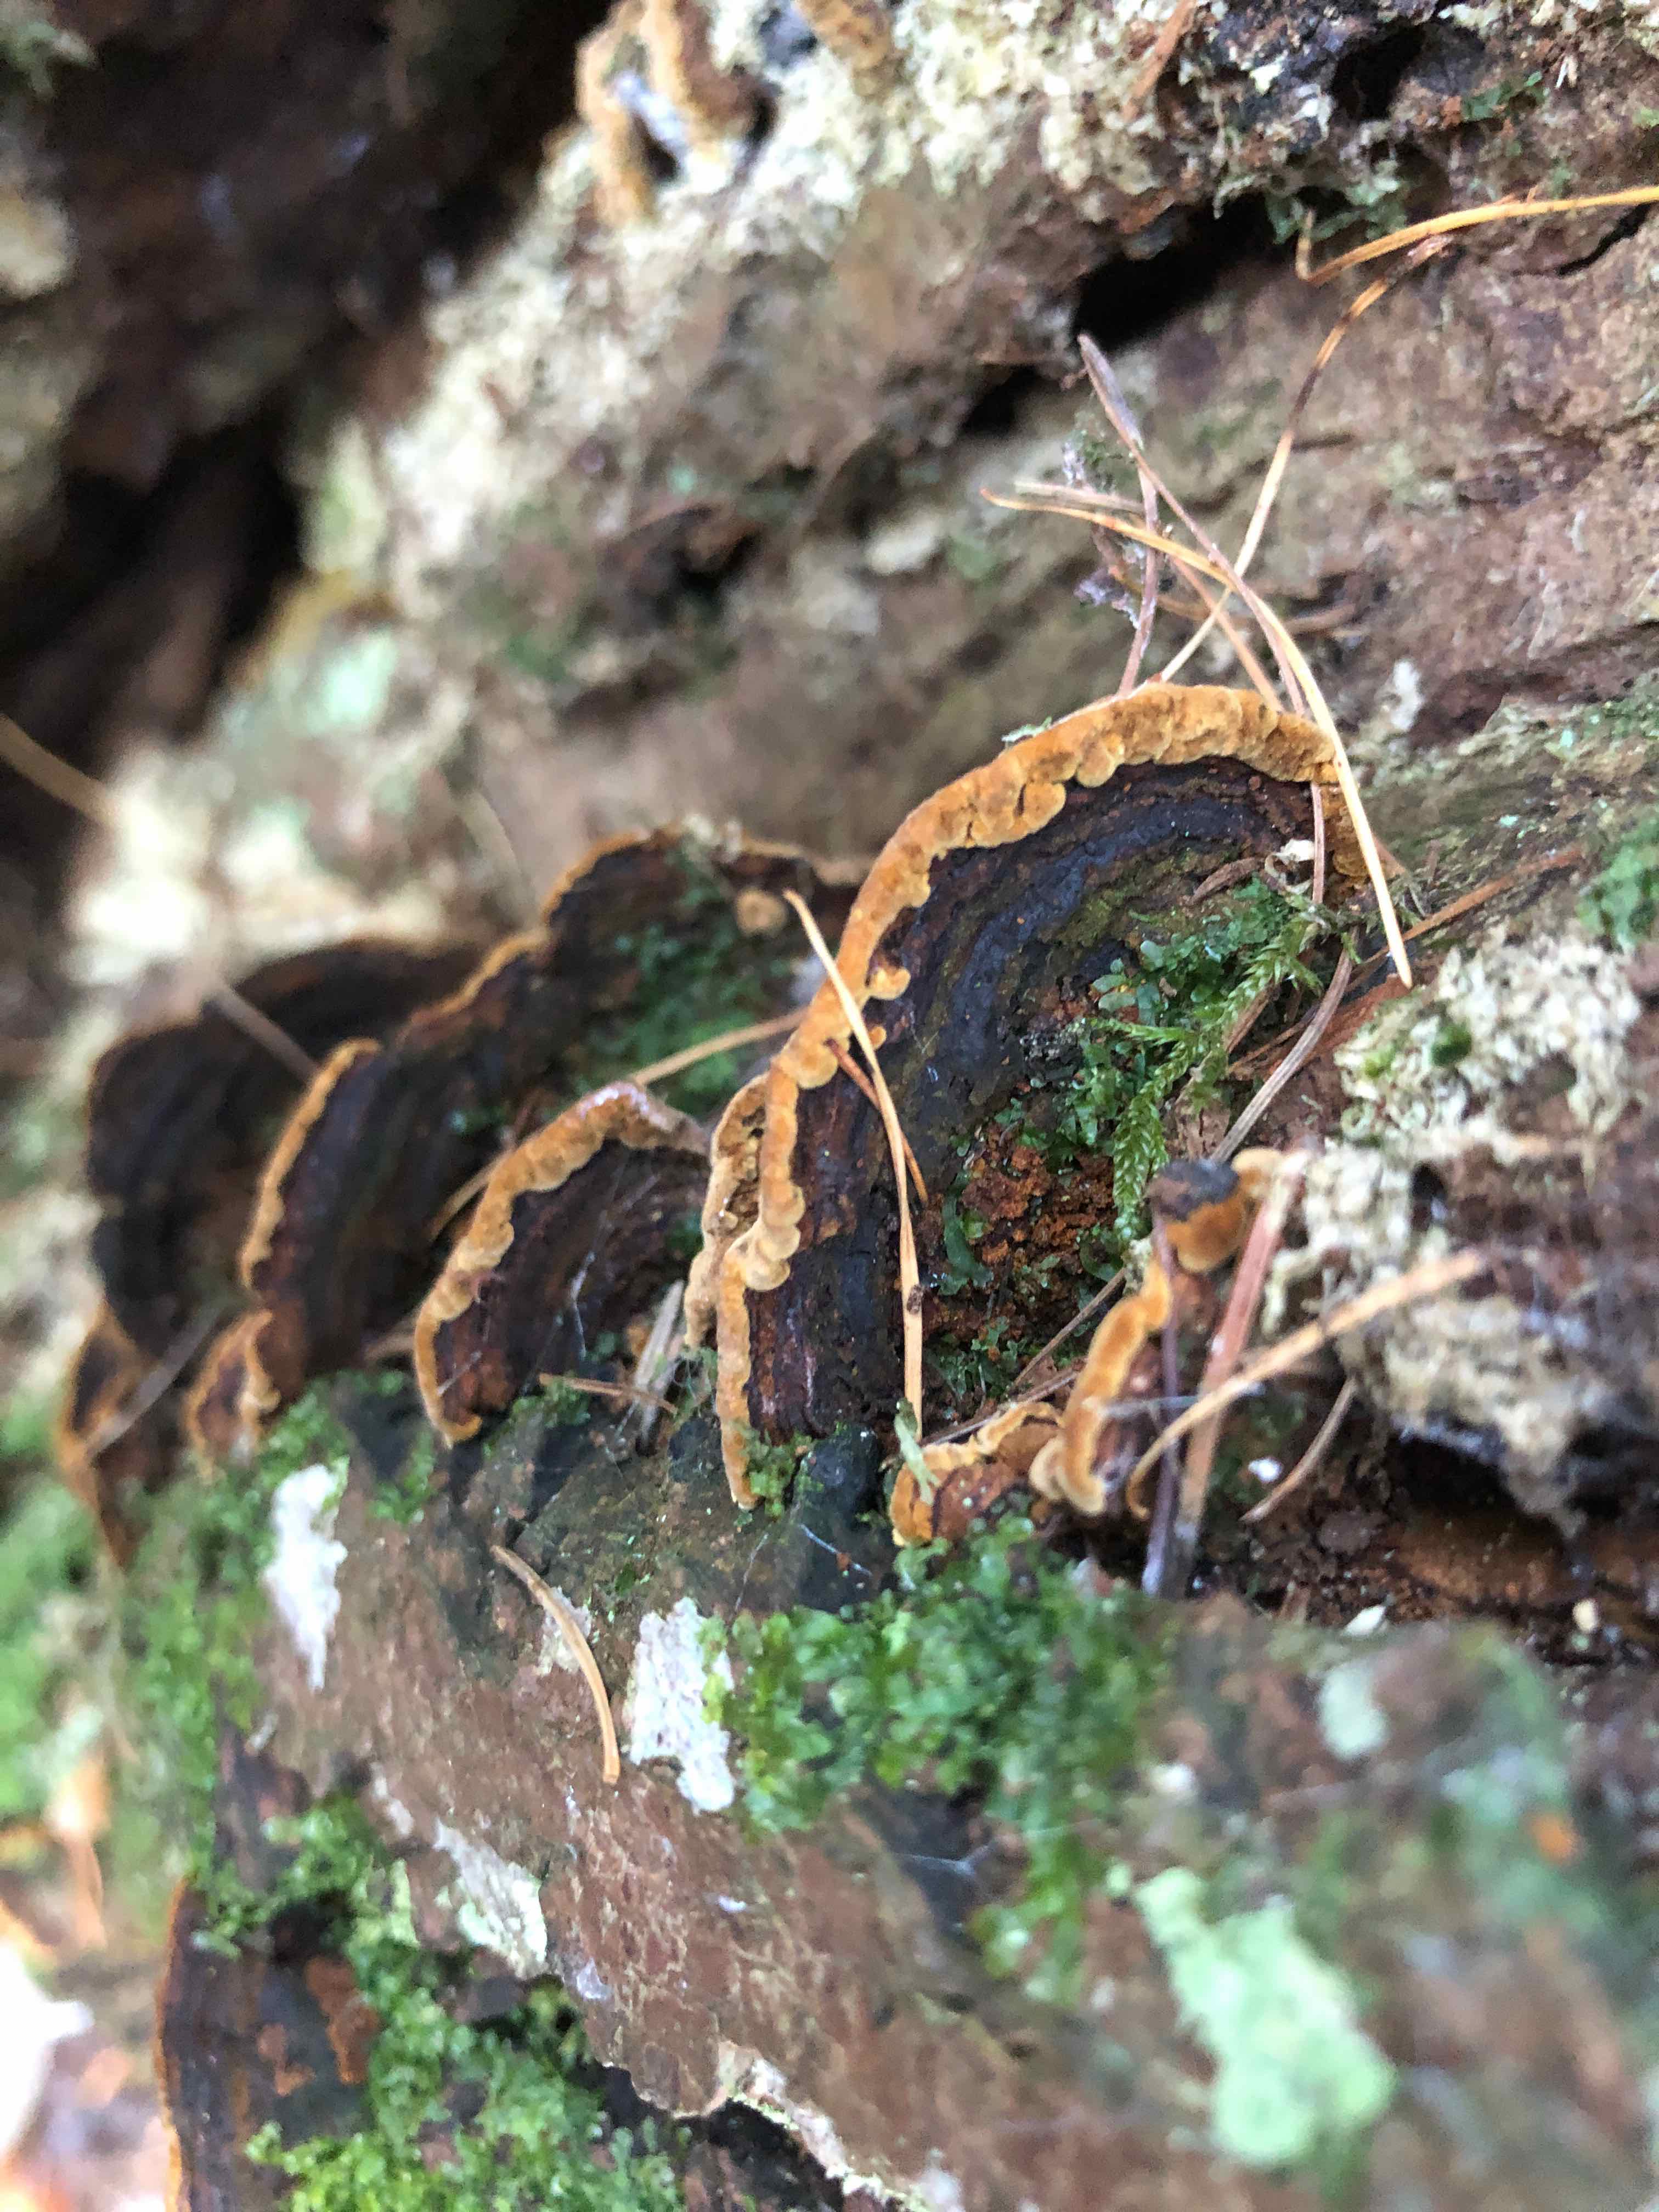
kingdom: Fungi
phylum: Basidiomycota
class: Agaricomycetes
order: Hymenochaetales
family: Hymenochaetaceae
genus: Phellinopsis
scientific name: Phellinopsis conchata
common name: pile-ildporesvamp
